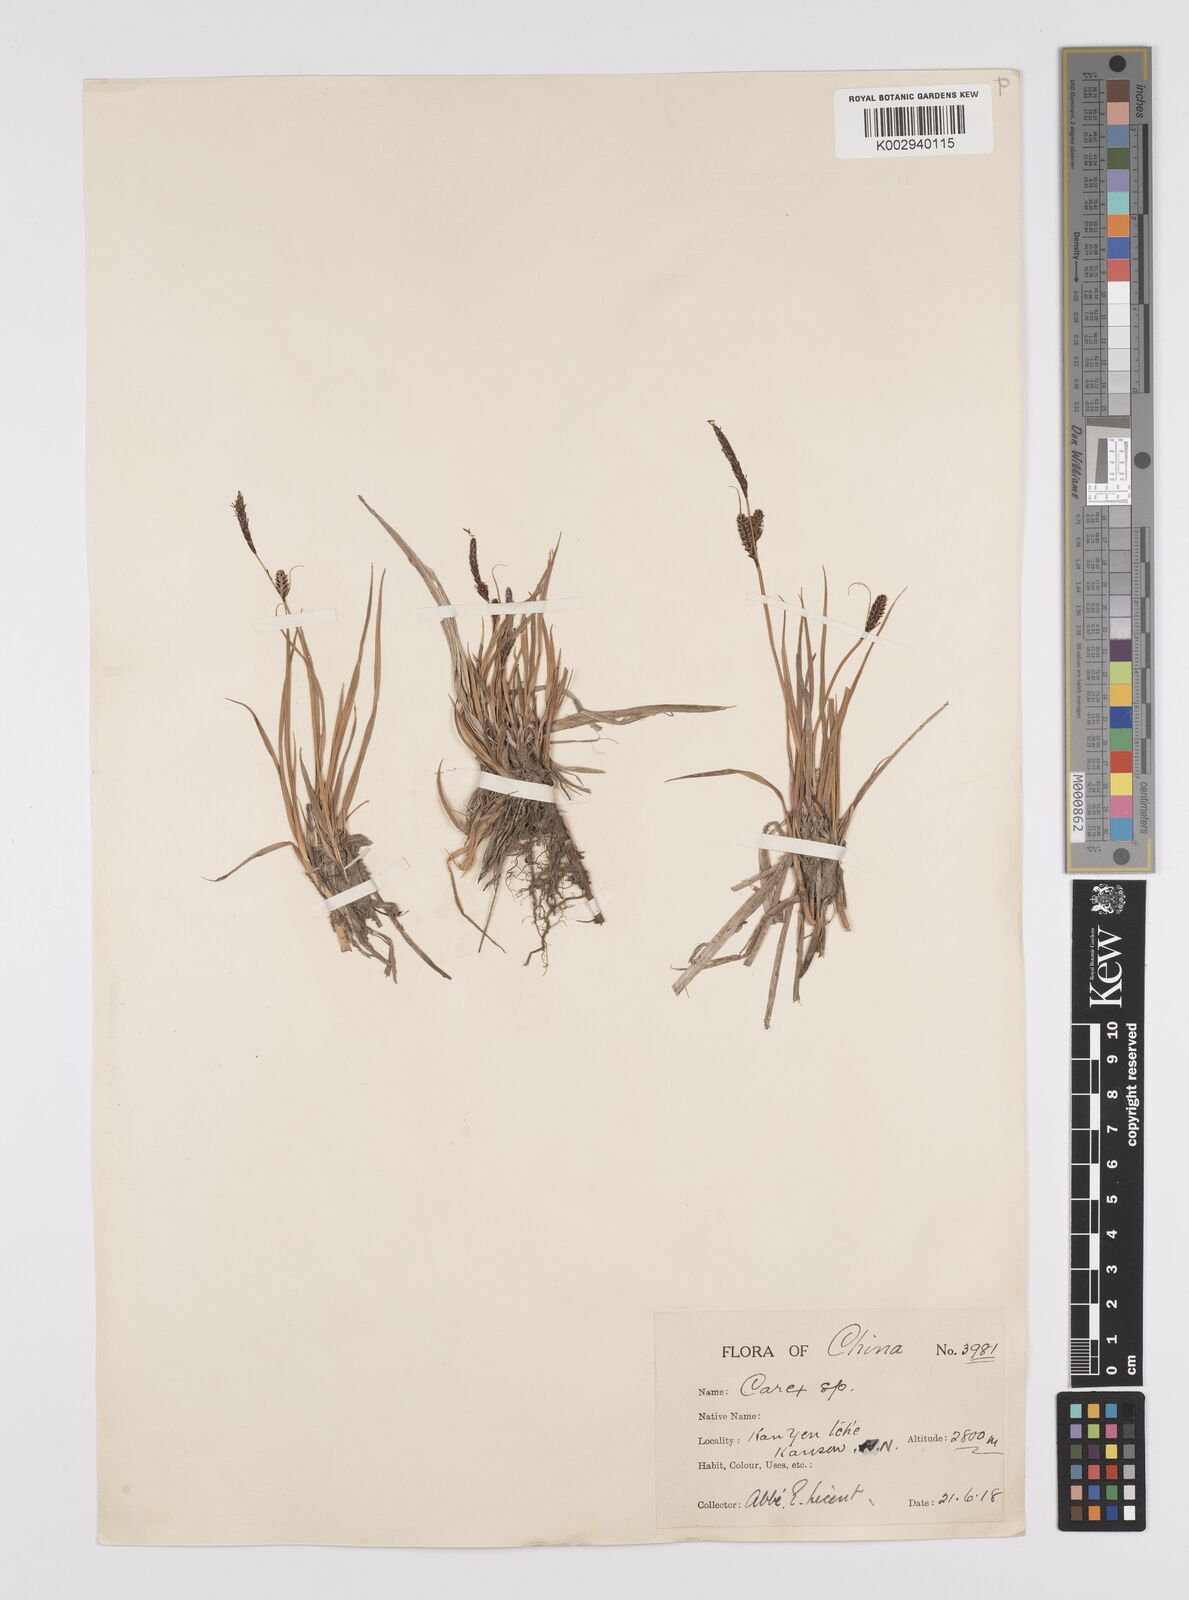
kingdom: Plantae
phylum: Tracheophyta
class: Liliopsida
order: Poales
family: Cyperaceae
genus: Carex
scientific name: Carex cespitosa
